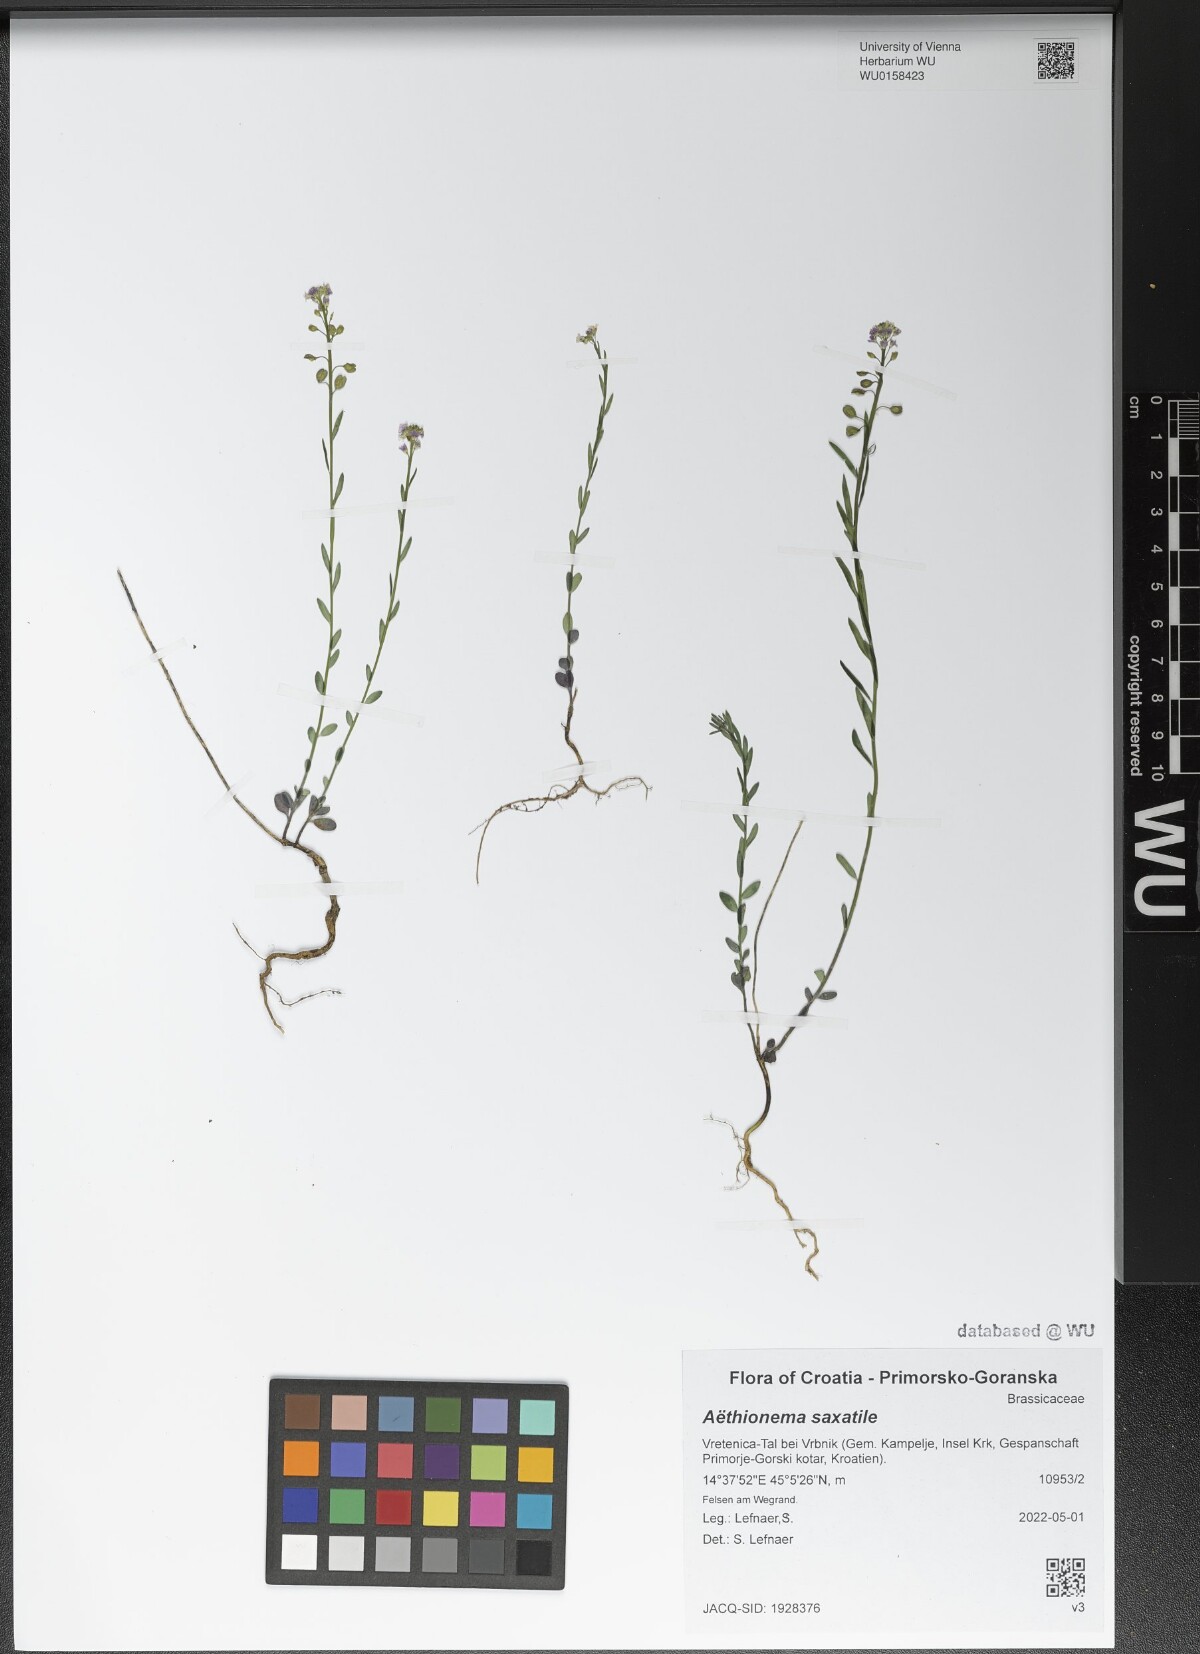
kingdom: Plantae
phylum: Tracheophyta
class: Magnoliopsida
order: Brassicales
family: Brassicaceae
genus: Aethionema
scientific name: Aethionema saxatile
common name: Burnt candytuft
